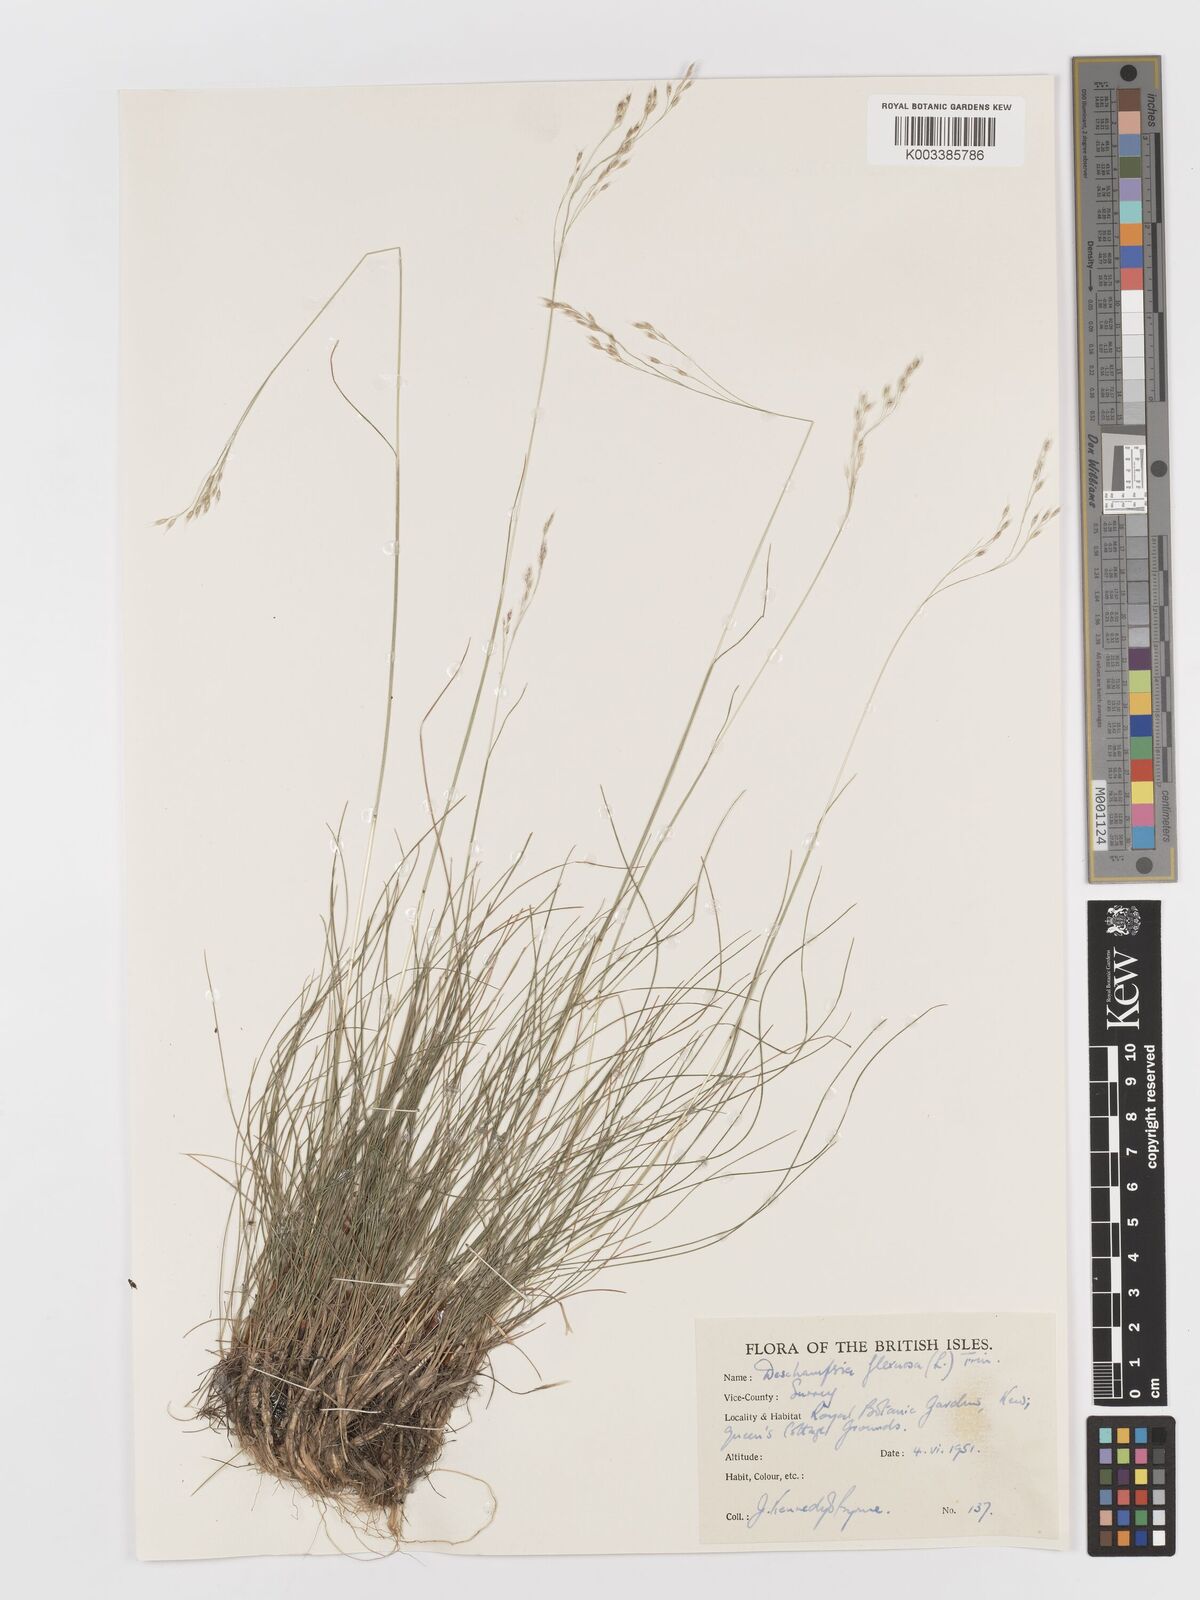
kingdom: Plantae
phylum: Tracheophyta
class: Liliopsida
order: Poales
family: Poaceae
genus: Avenella
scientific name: Avenella flexuosa
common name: Wavy hairgrass
